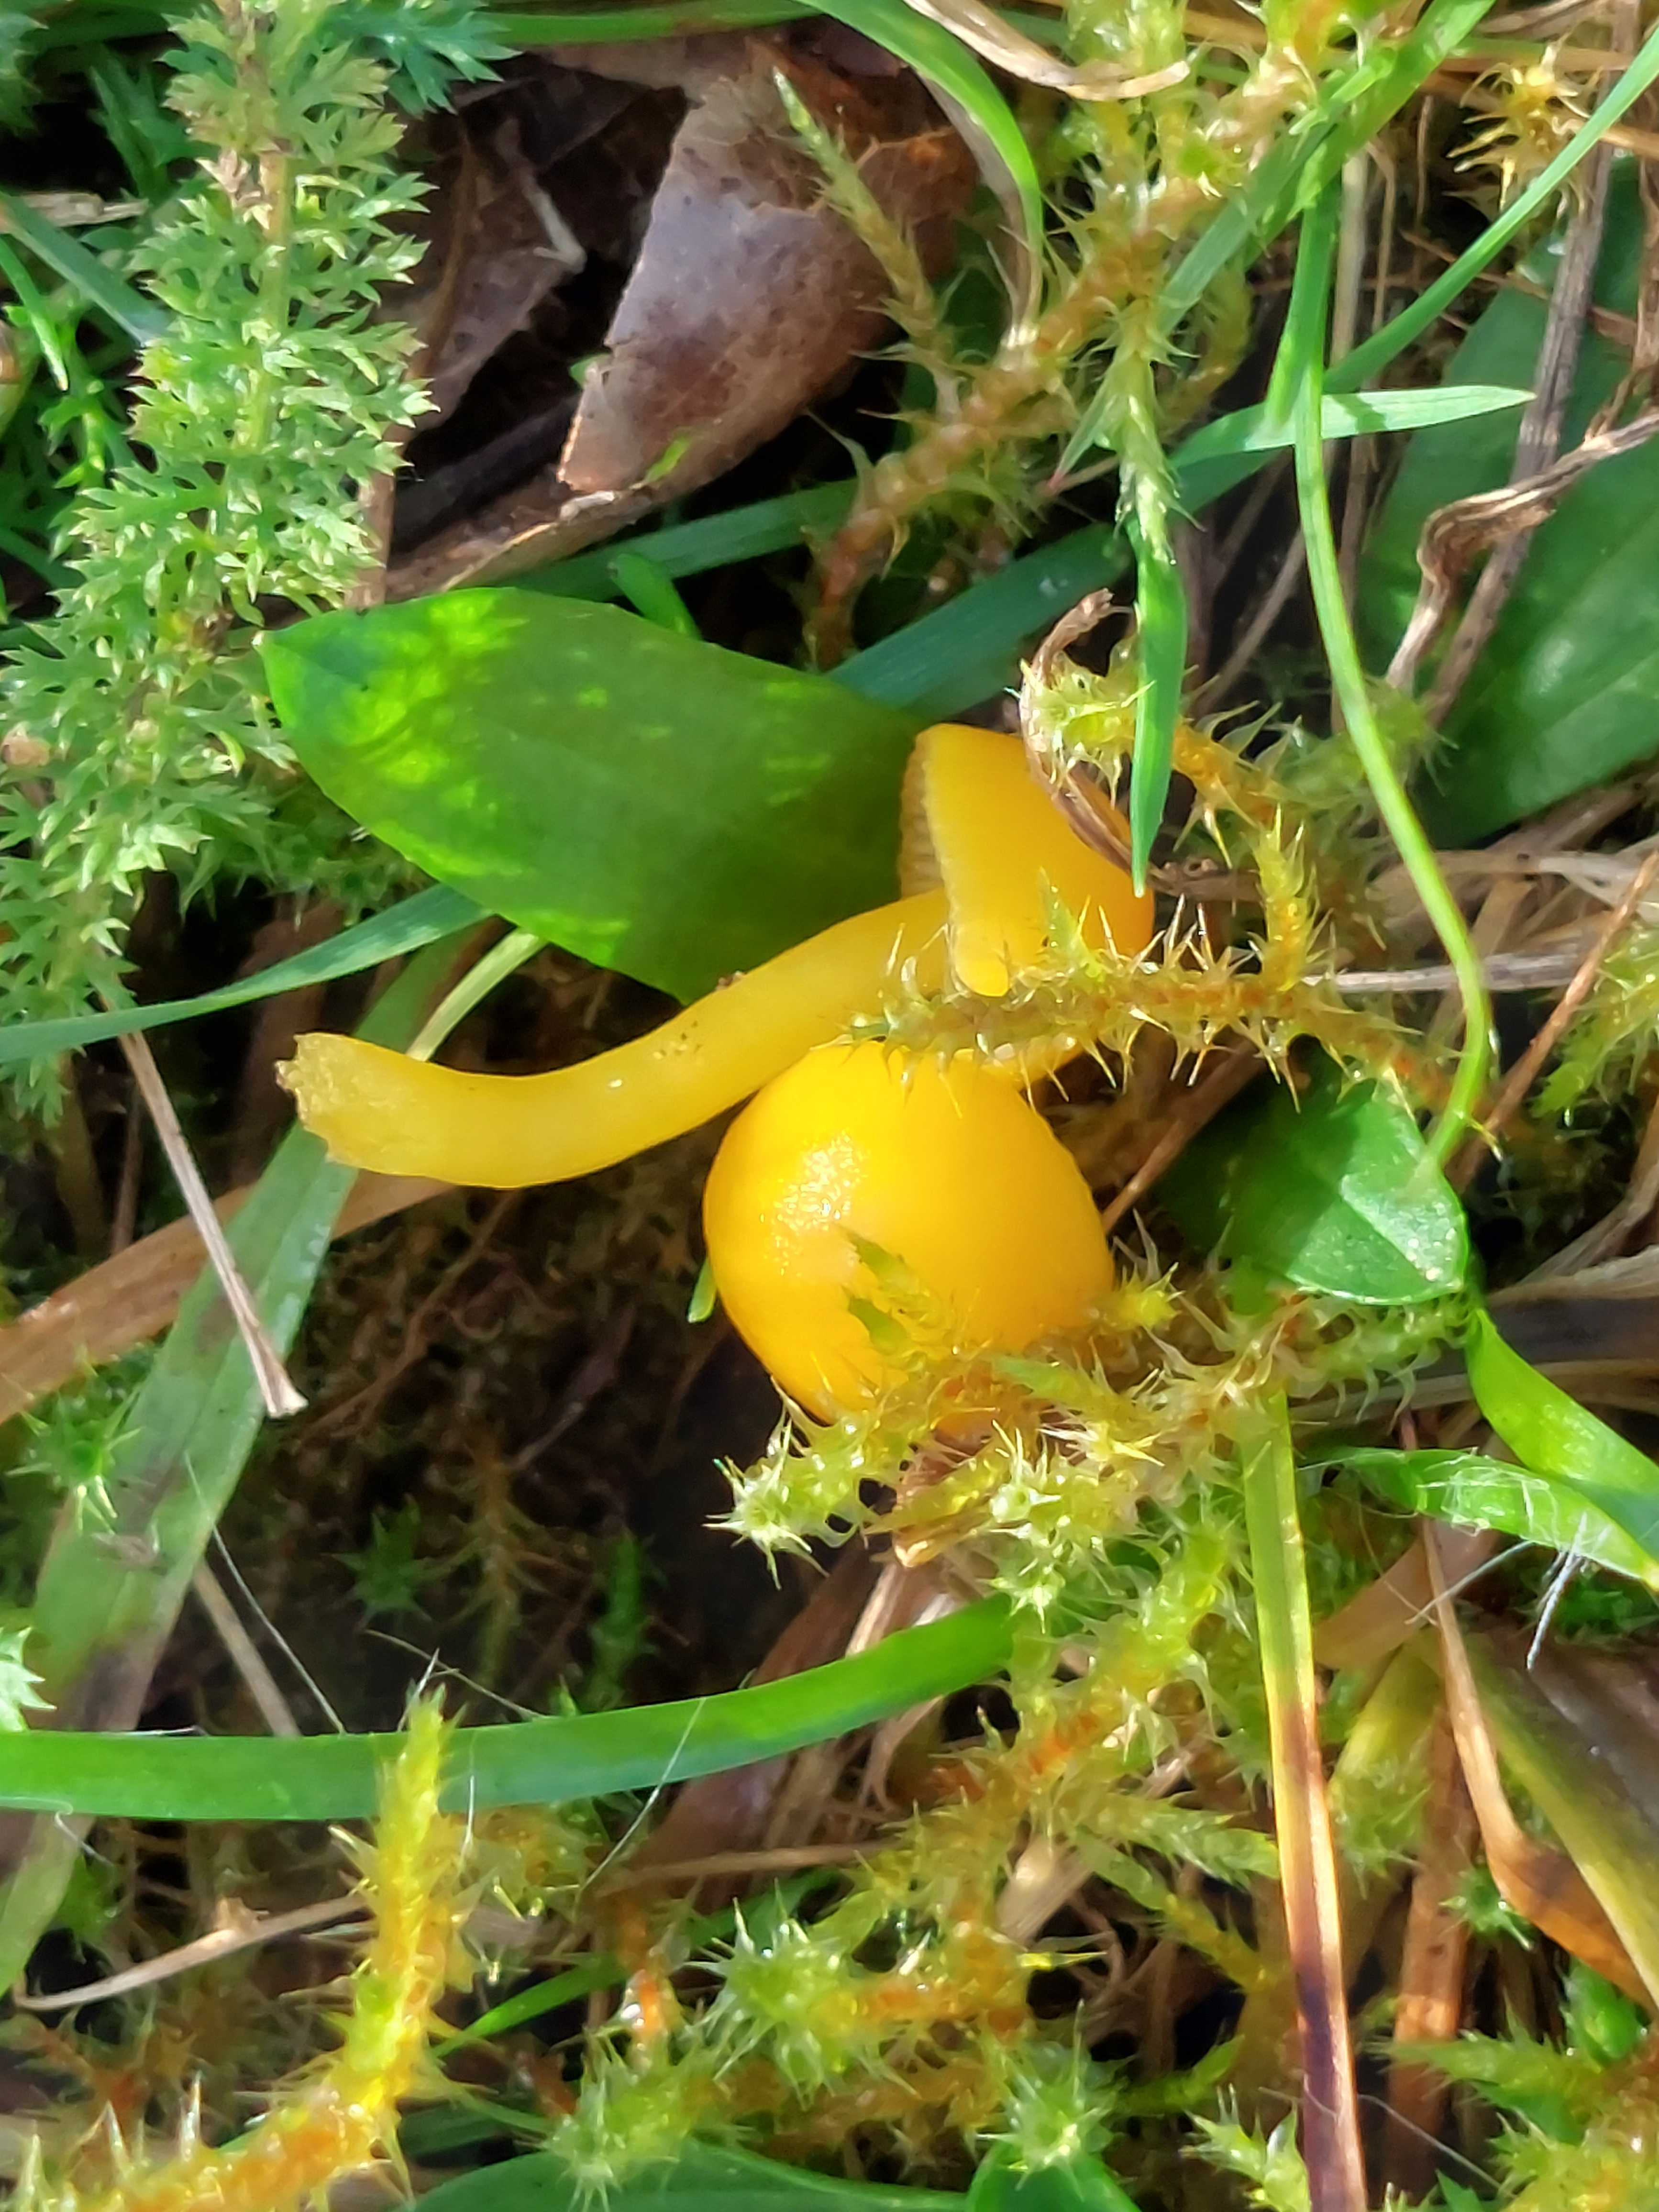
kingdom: Fungi
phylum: Basidiomycota
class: Agaricomycetes
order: Agaricales
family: Hygrophoraceae
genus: Hygrocybe
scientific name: Hygrocybe ceracea
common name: voksgul vokshat
